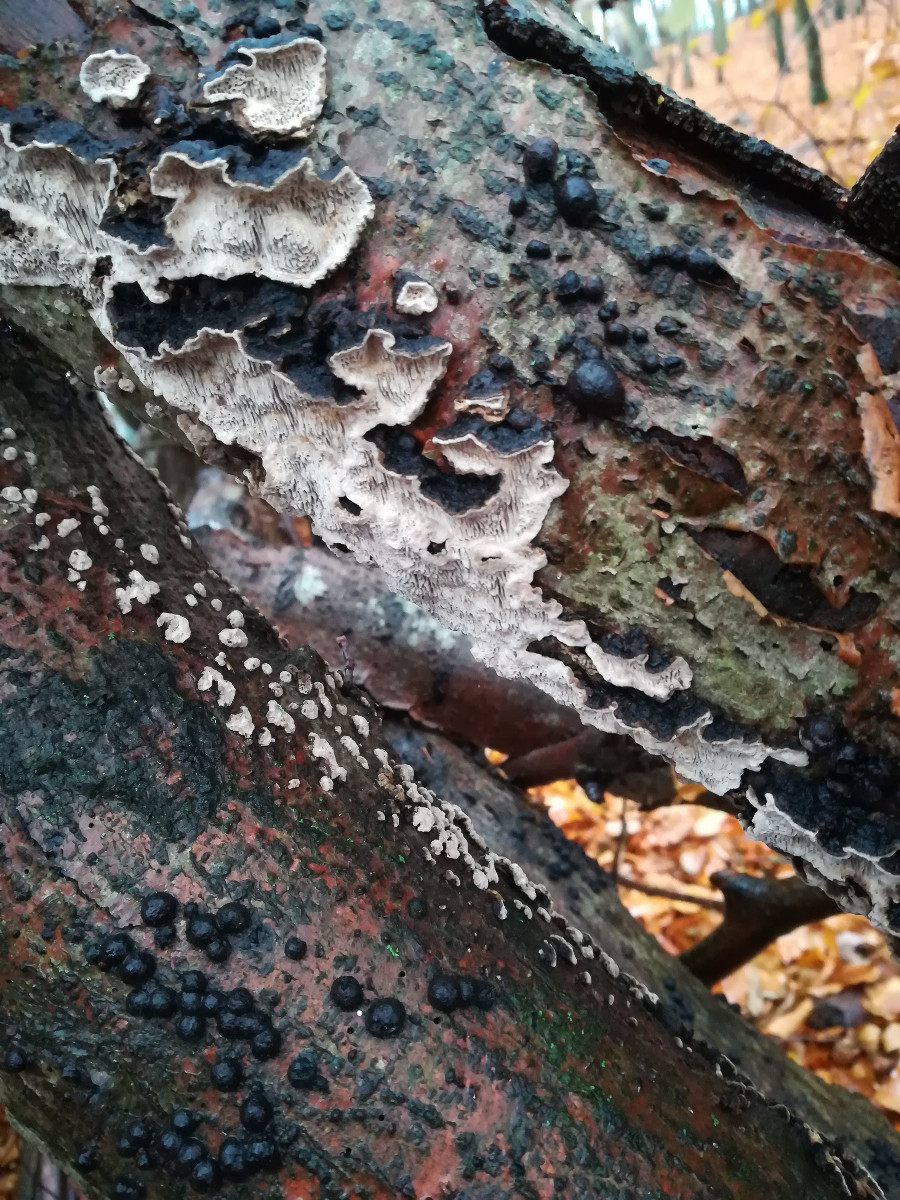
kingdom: Fungi
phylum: Basidiomycota
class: Agaricomycetes
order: Polyporales
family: Polyporaceae
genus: Podofomes
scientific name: Podofomes mollis
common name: blød begporesvamp
